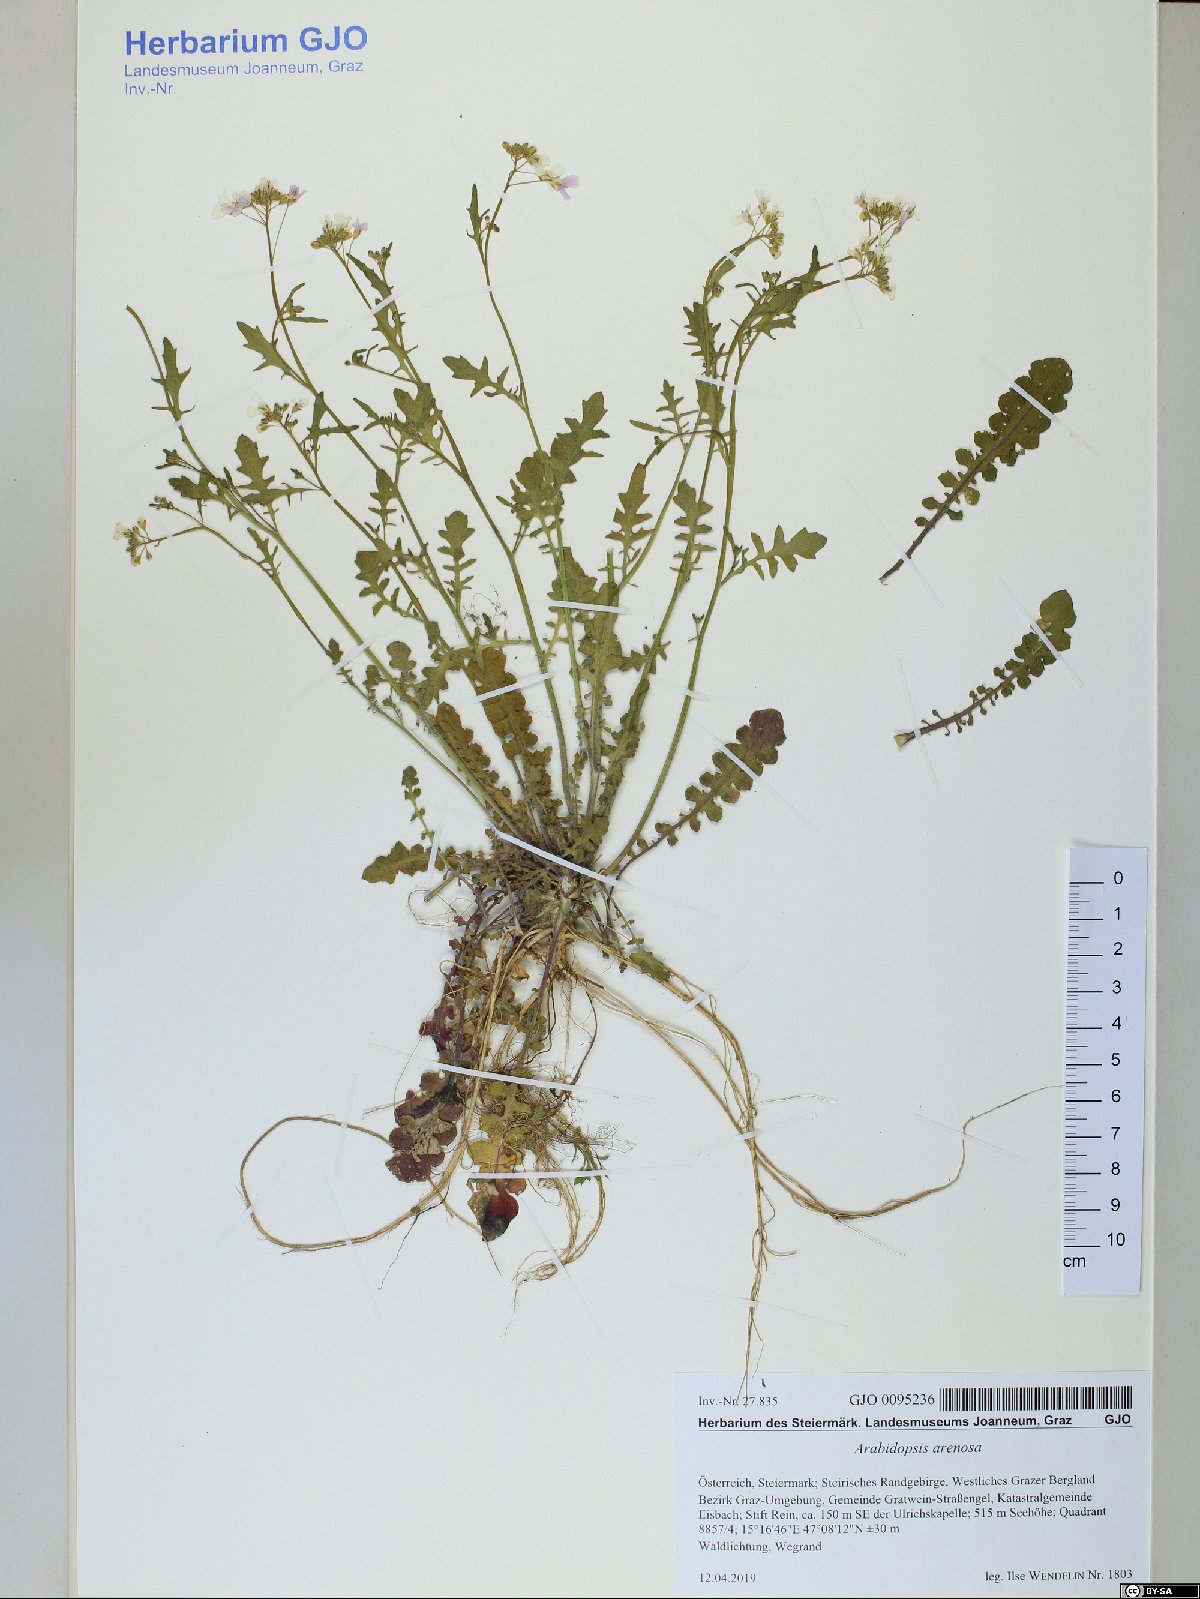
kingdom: Plantae
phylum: Tracheophyta
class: Magnoliopsida
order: Brassicales
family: Brassicaceae
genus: Arabidopsis
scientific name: Arabidopsis arenosa
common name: Sand rock-cress
